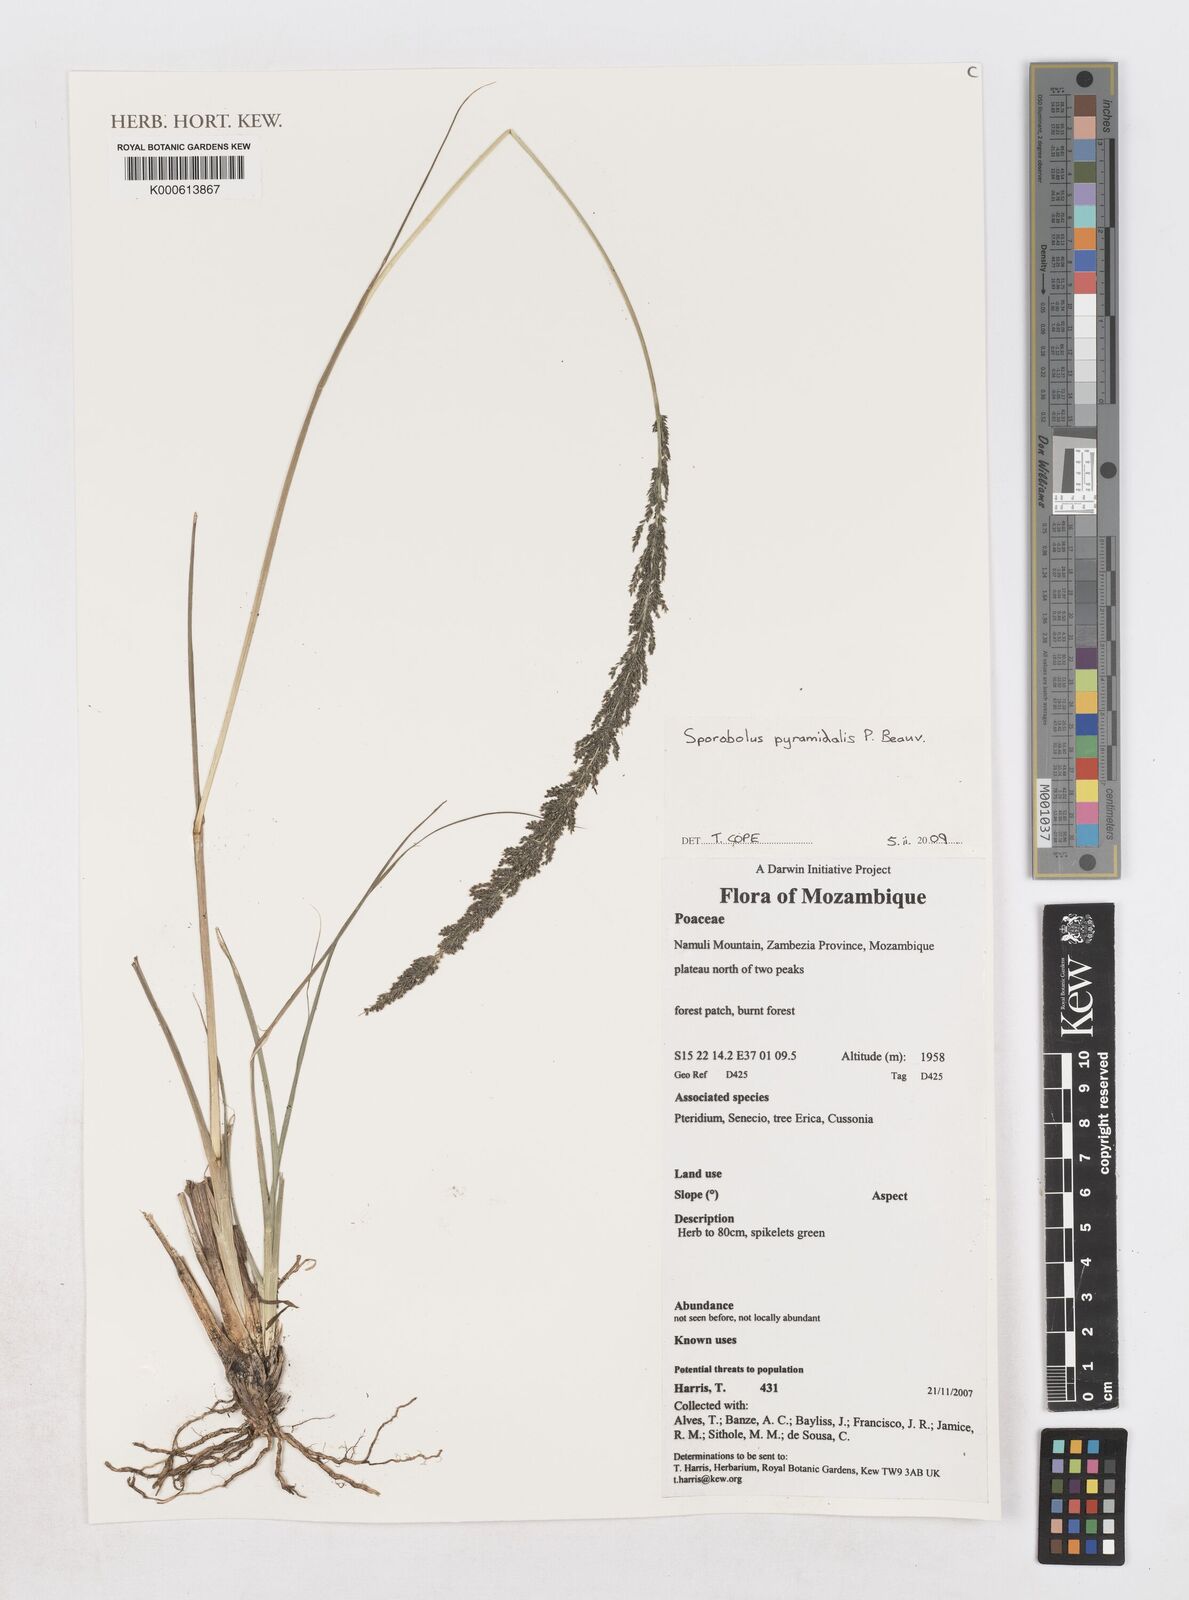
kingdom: Plantae
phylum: Tracheophyta
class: Liliopsida
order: Poales
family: Poaceae
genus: Sporobolus
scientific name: Sporobolus pyramidalis
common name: West indian dropseed
